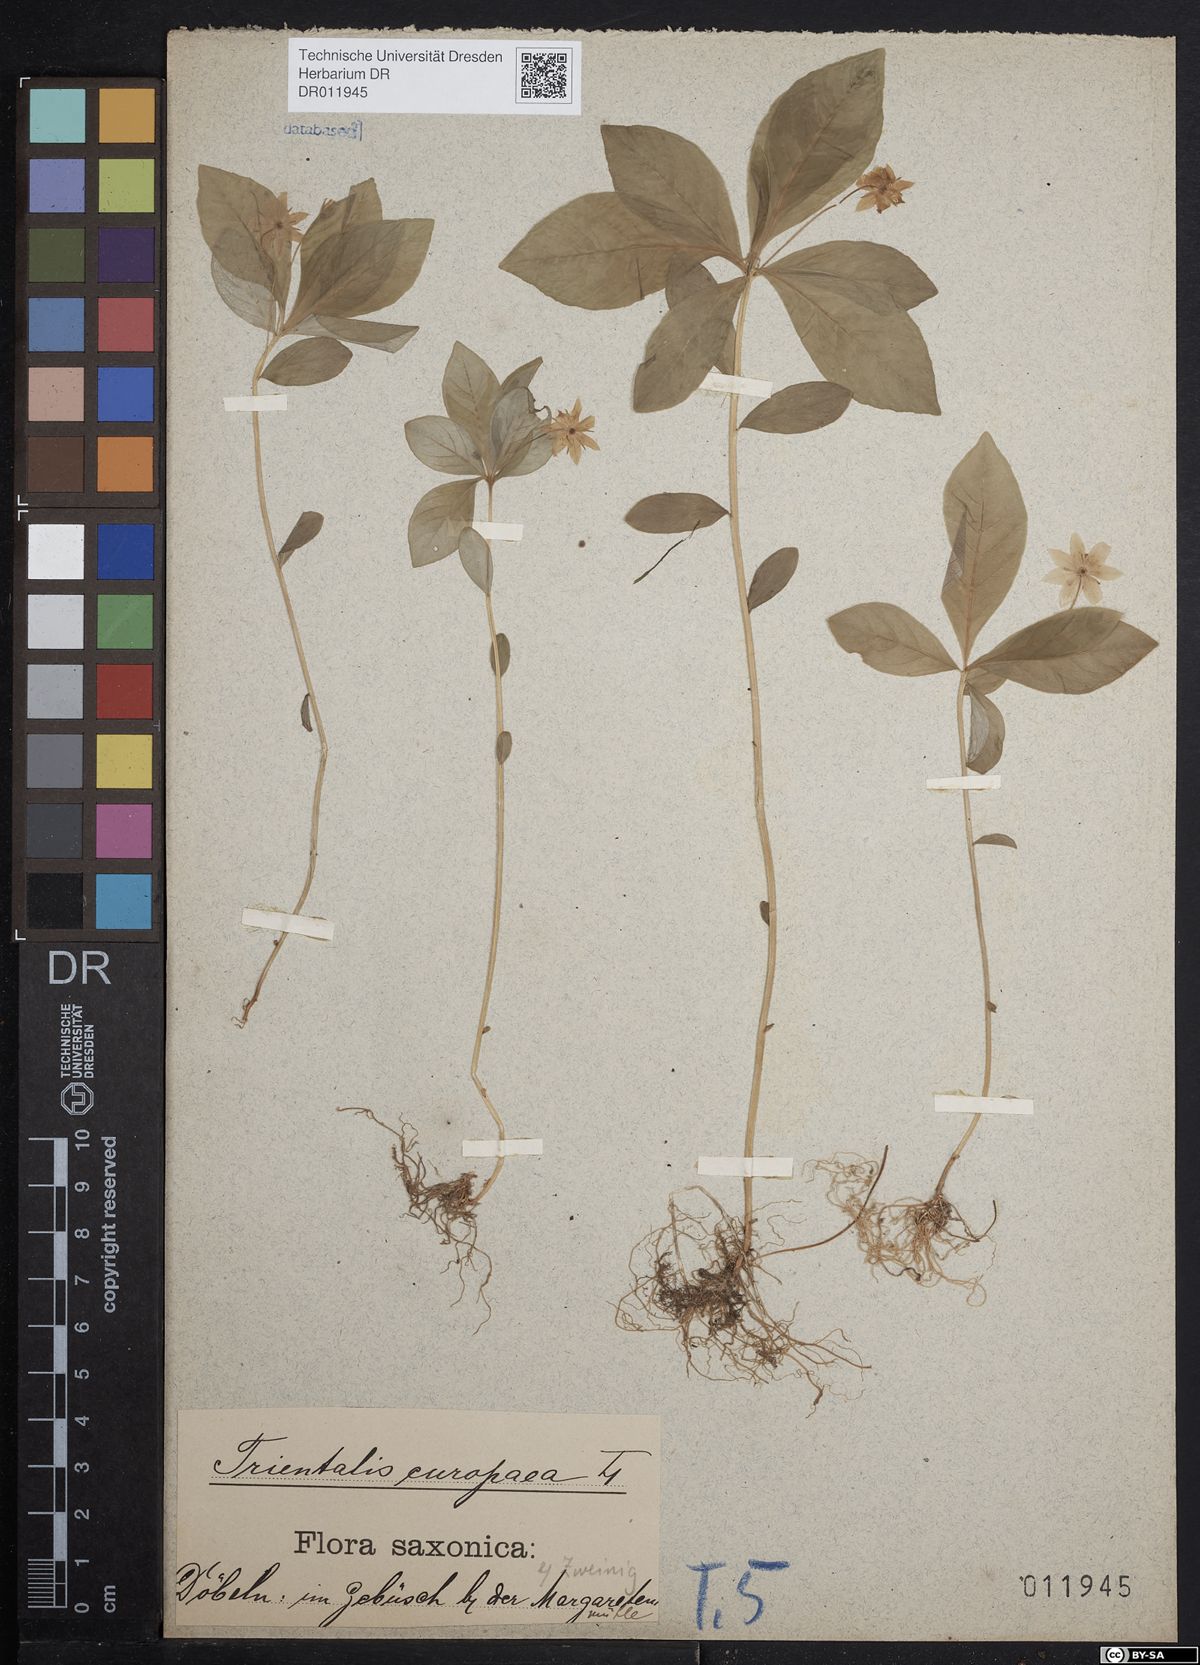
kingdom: Plantae
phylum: Tracheophyta
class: Magnoliopsida
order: Ericales
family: Primulaceae
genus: Lysimachia
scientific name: Lysimachia europaea
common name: Arctic starflower
